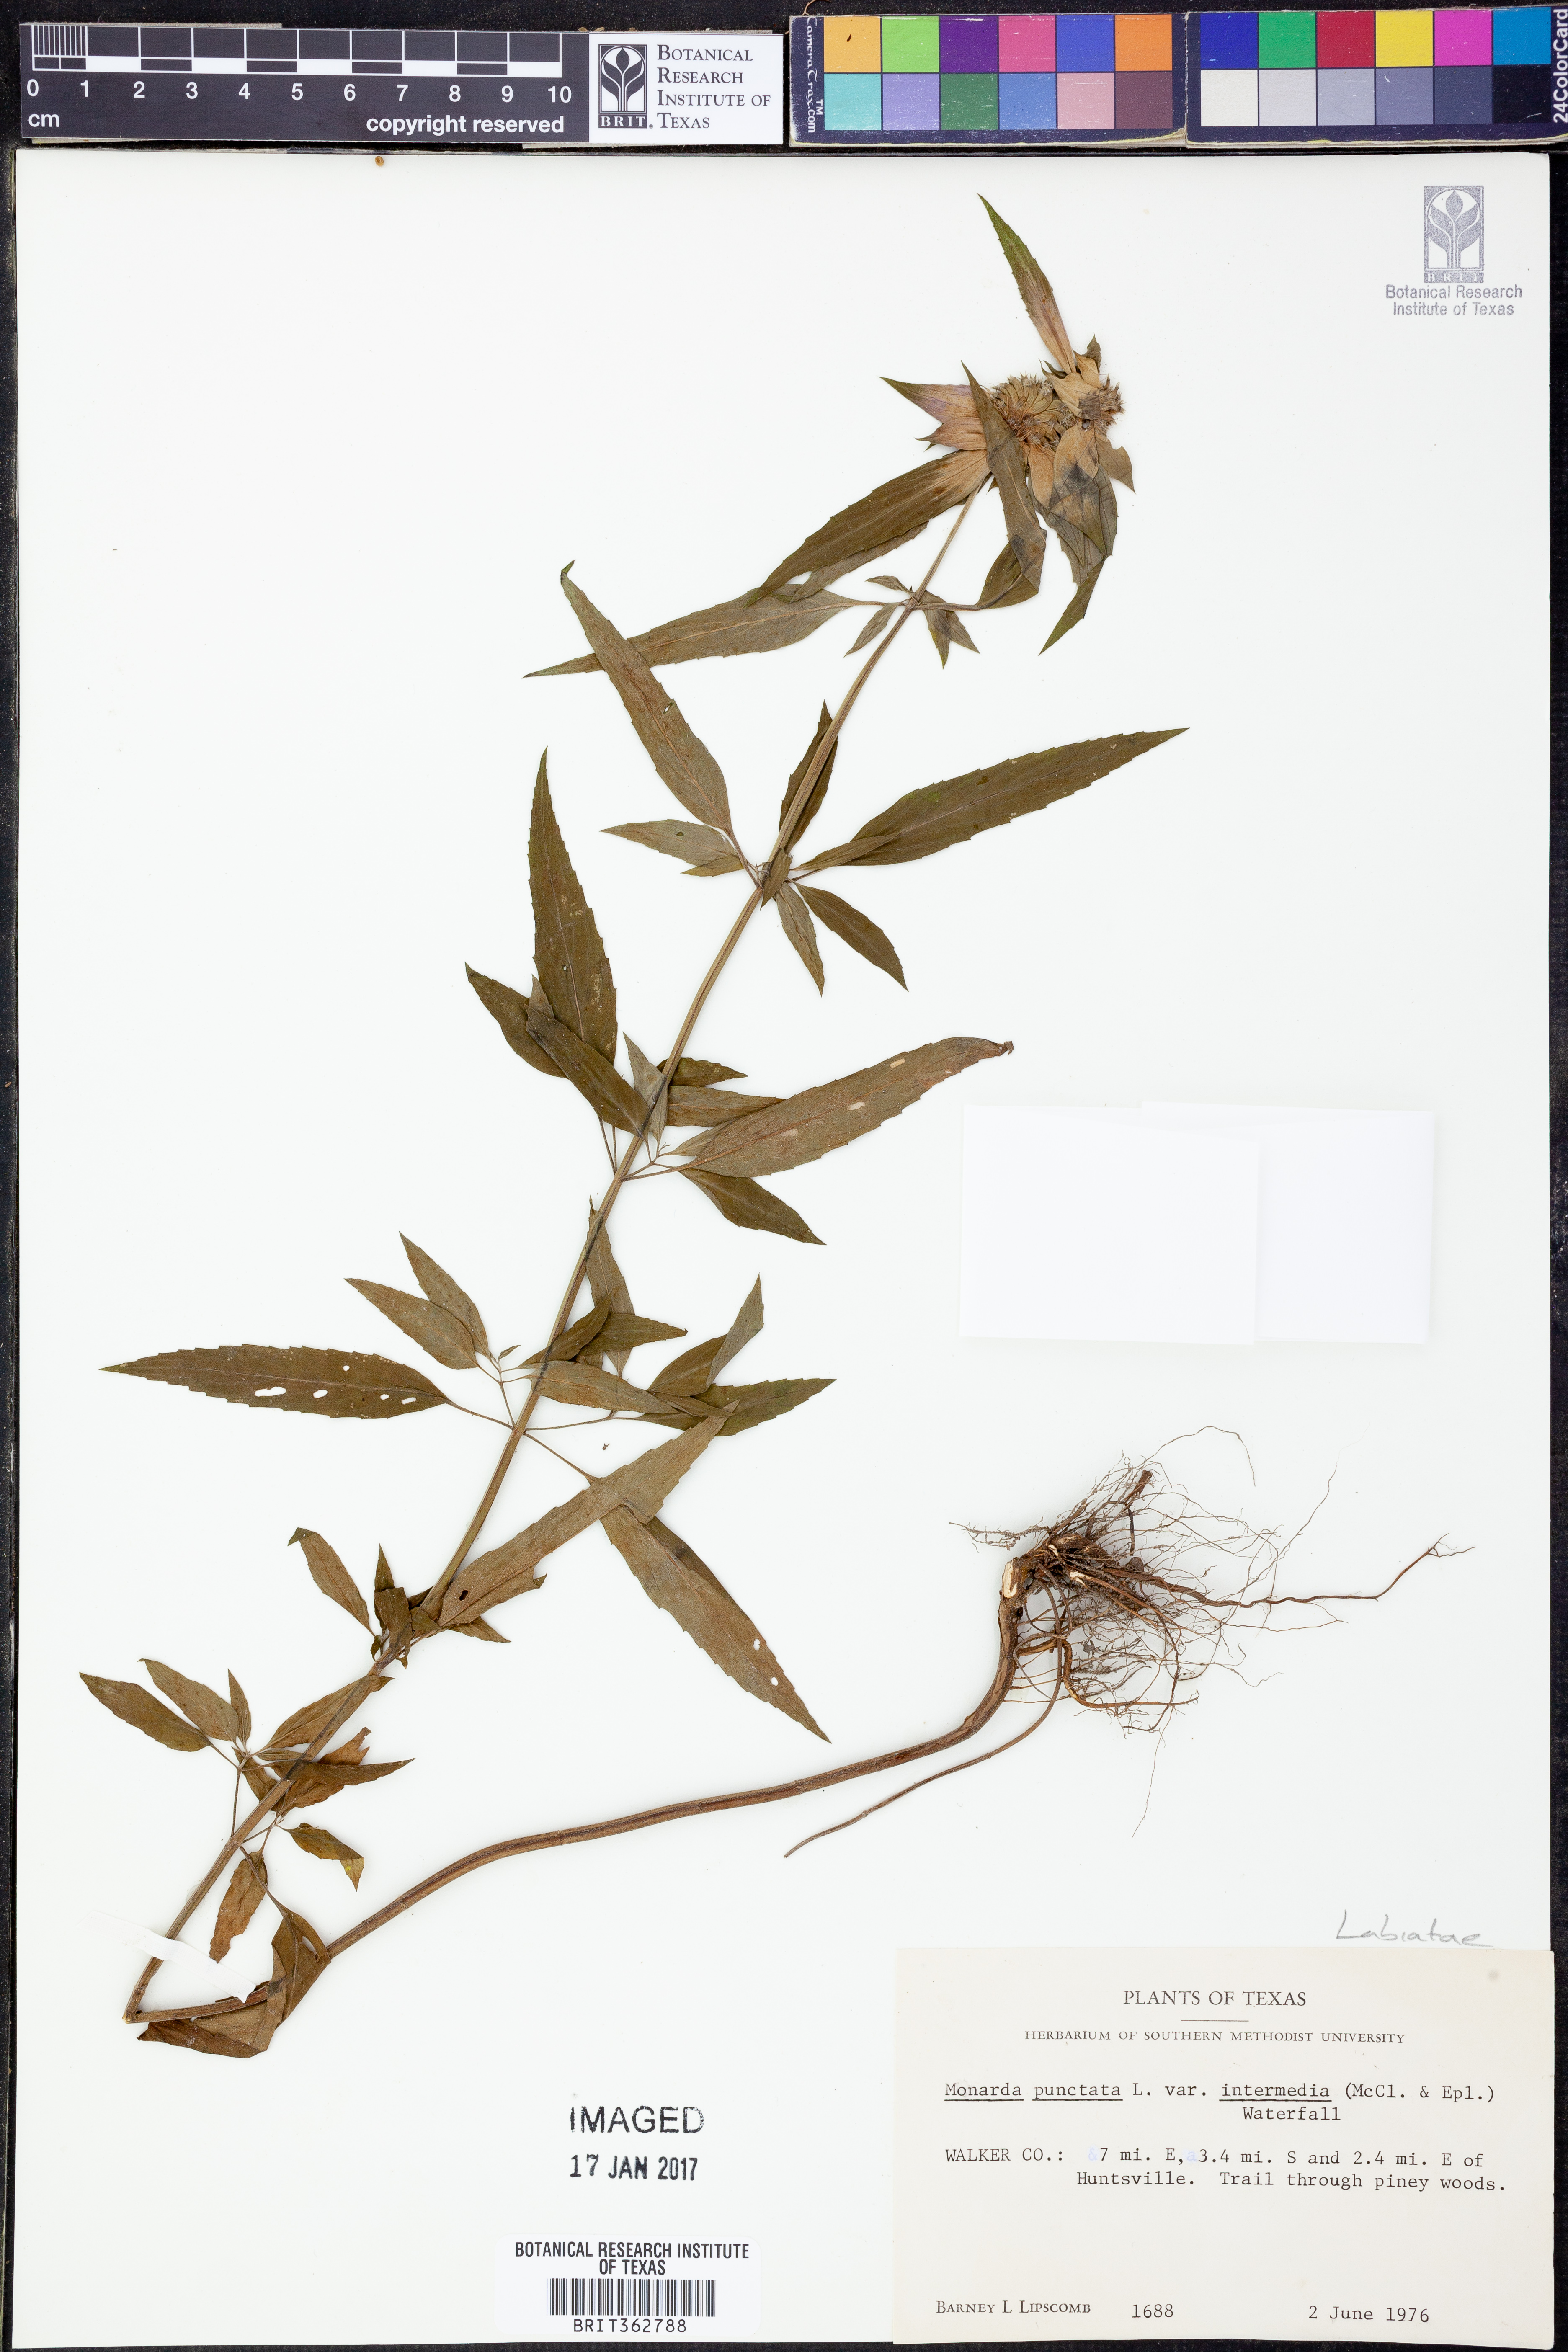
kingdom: Plantae
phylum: Tracheophyta
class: Magnoliopsida
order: Lamiales
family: Lamiaceae
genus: Monarda
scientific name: Monarda punctata
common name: Dotted monarda
